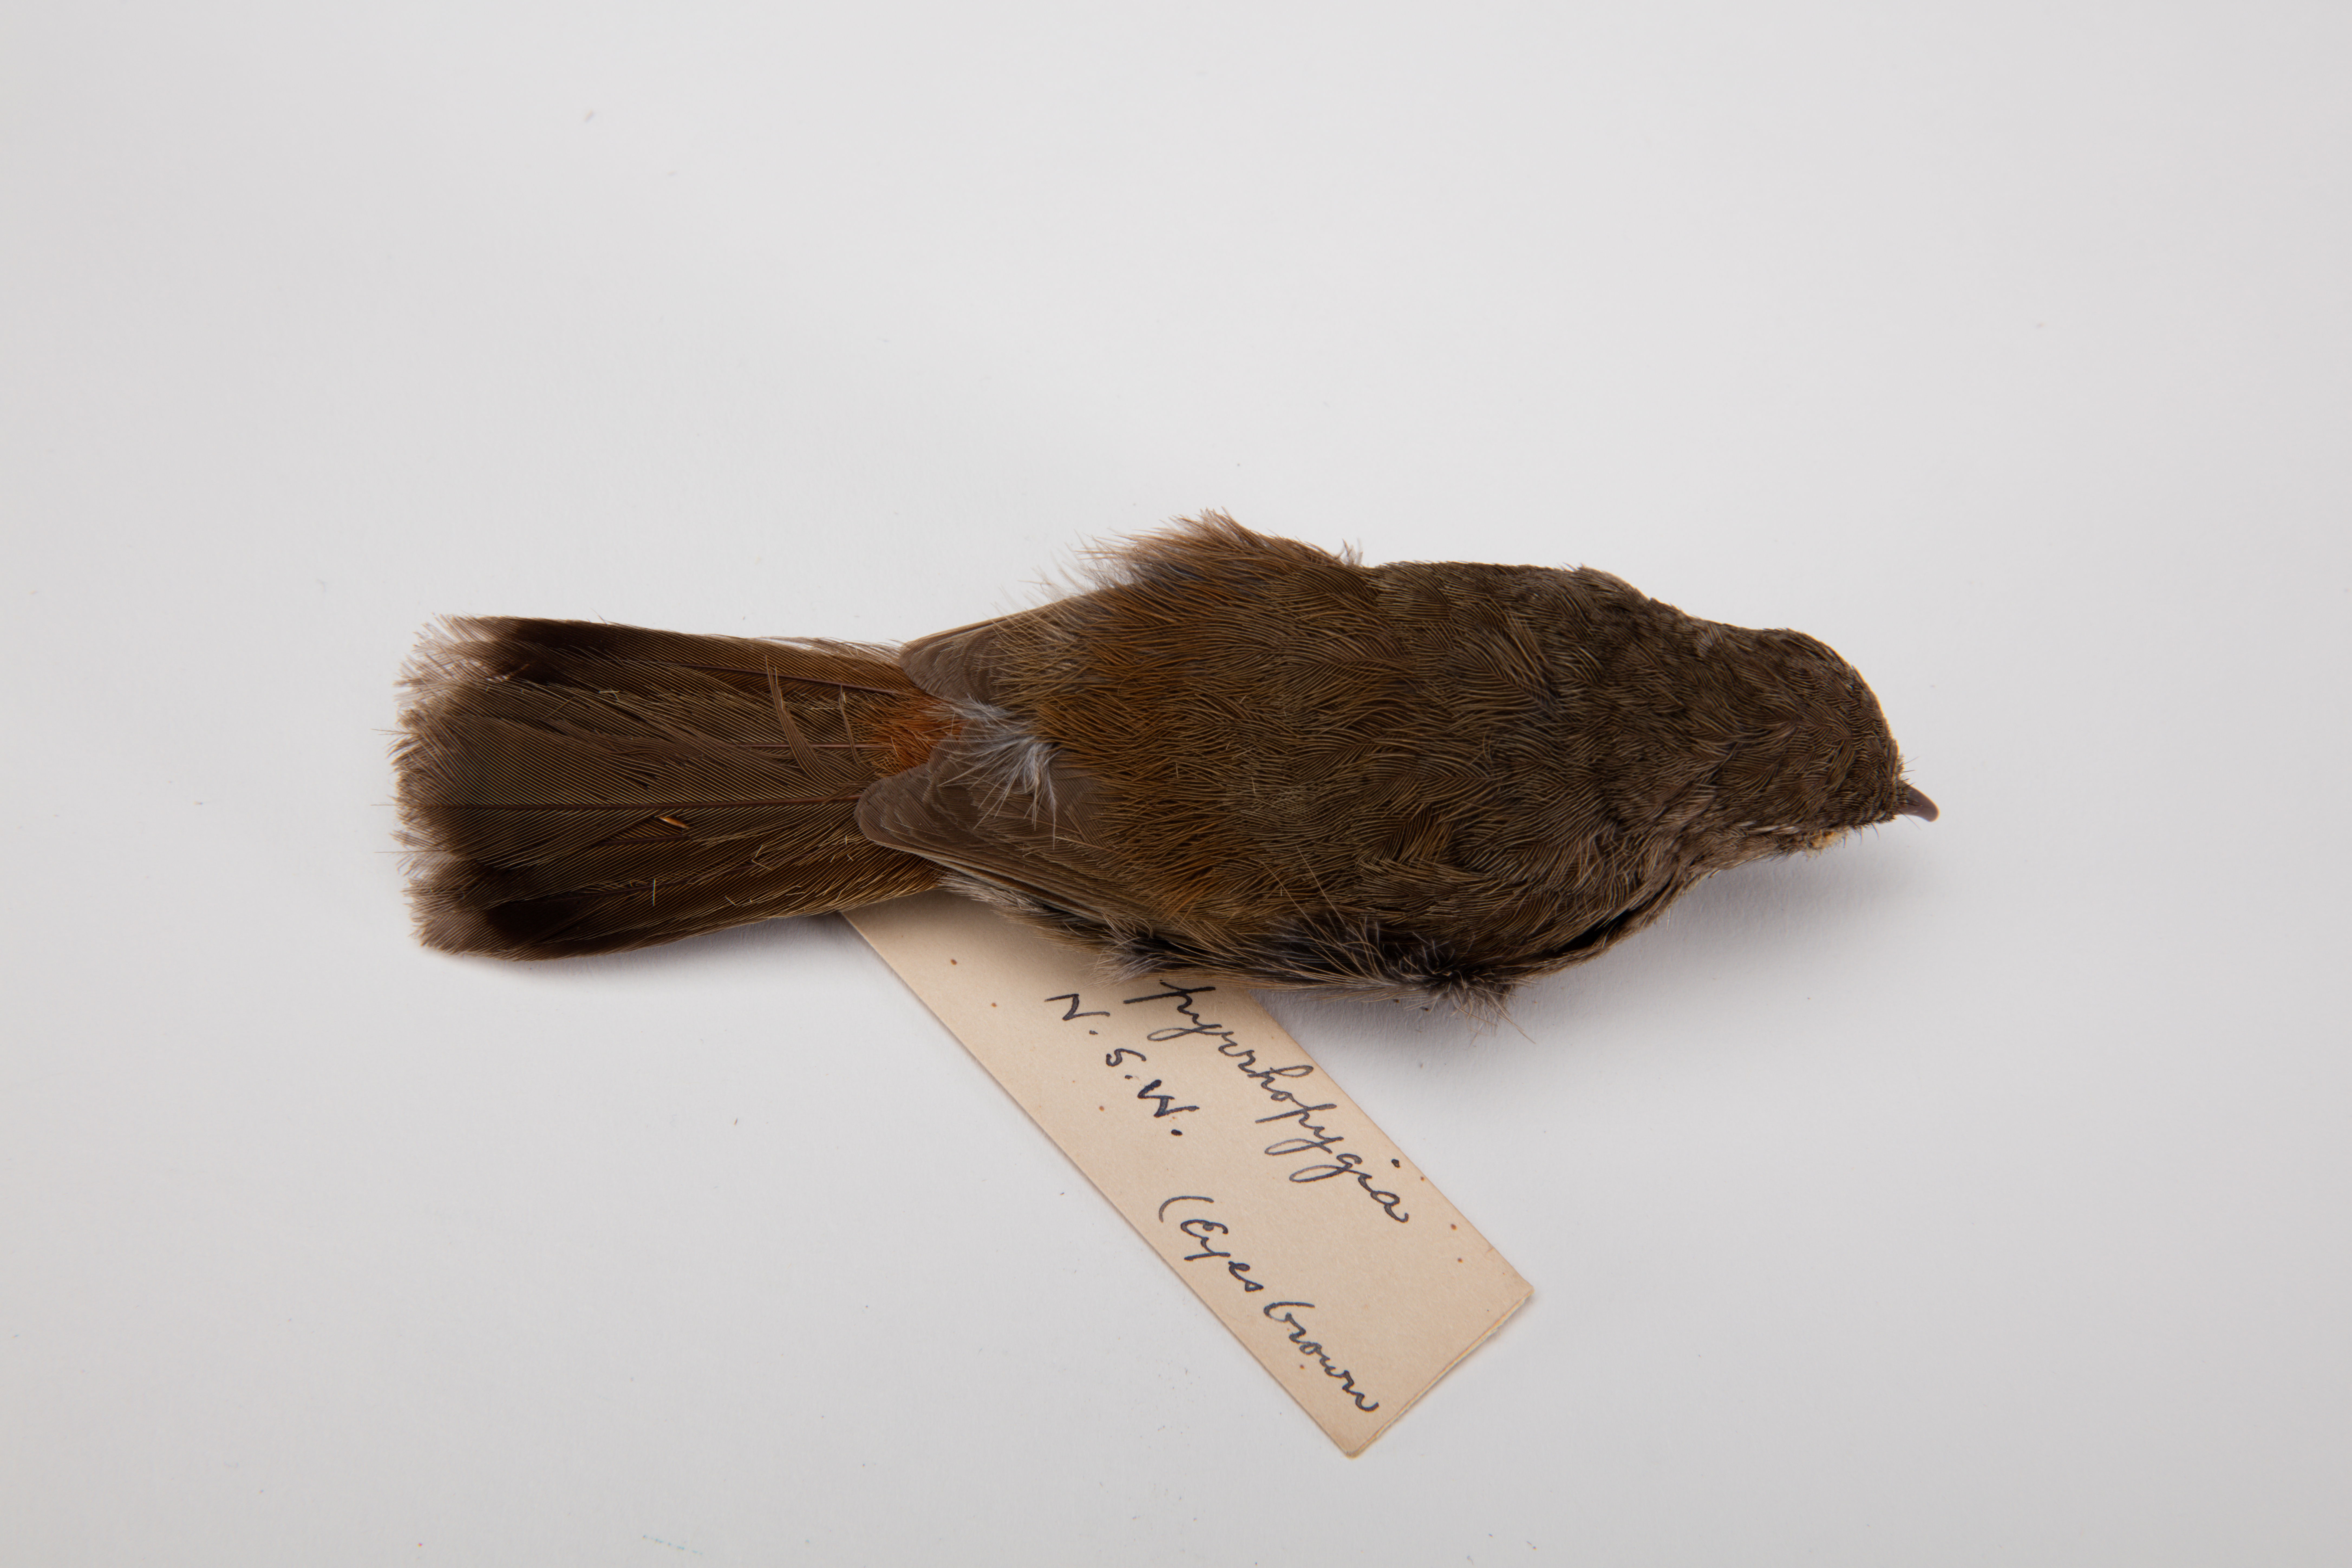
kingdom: Animalia
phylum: Chordata
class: Aves
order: Passeriformes
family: Acanthizidae
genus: Calamanthus
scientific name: Calamanthus pyrrhopygius
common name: Chestnut-rumped heathwren
